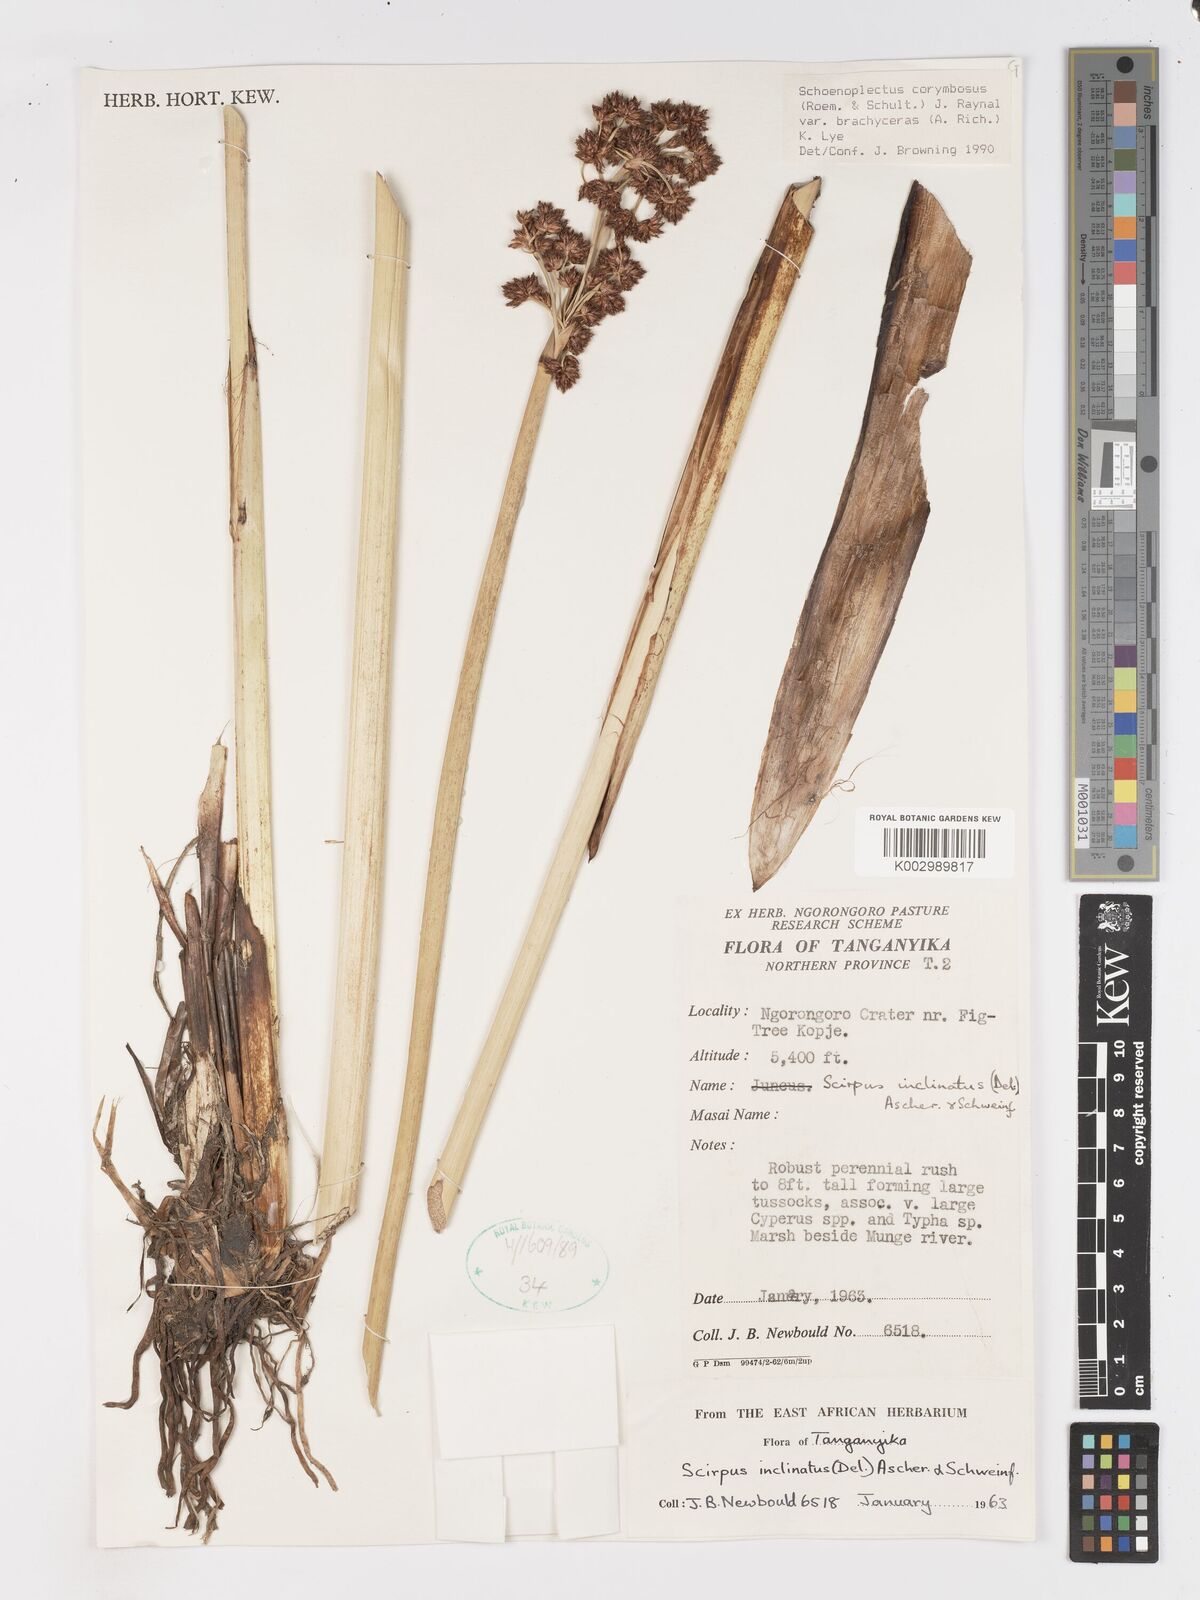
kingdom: Plantae
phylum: Tracheophyta
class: Liliopsida
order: Poales
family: Cyperaceae
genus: Schoenoplectiella
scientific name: Schoenoplectiella brachyceras
